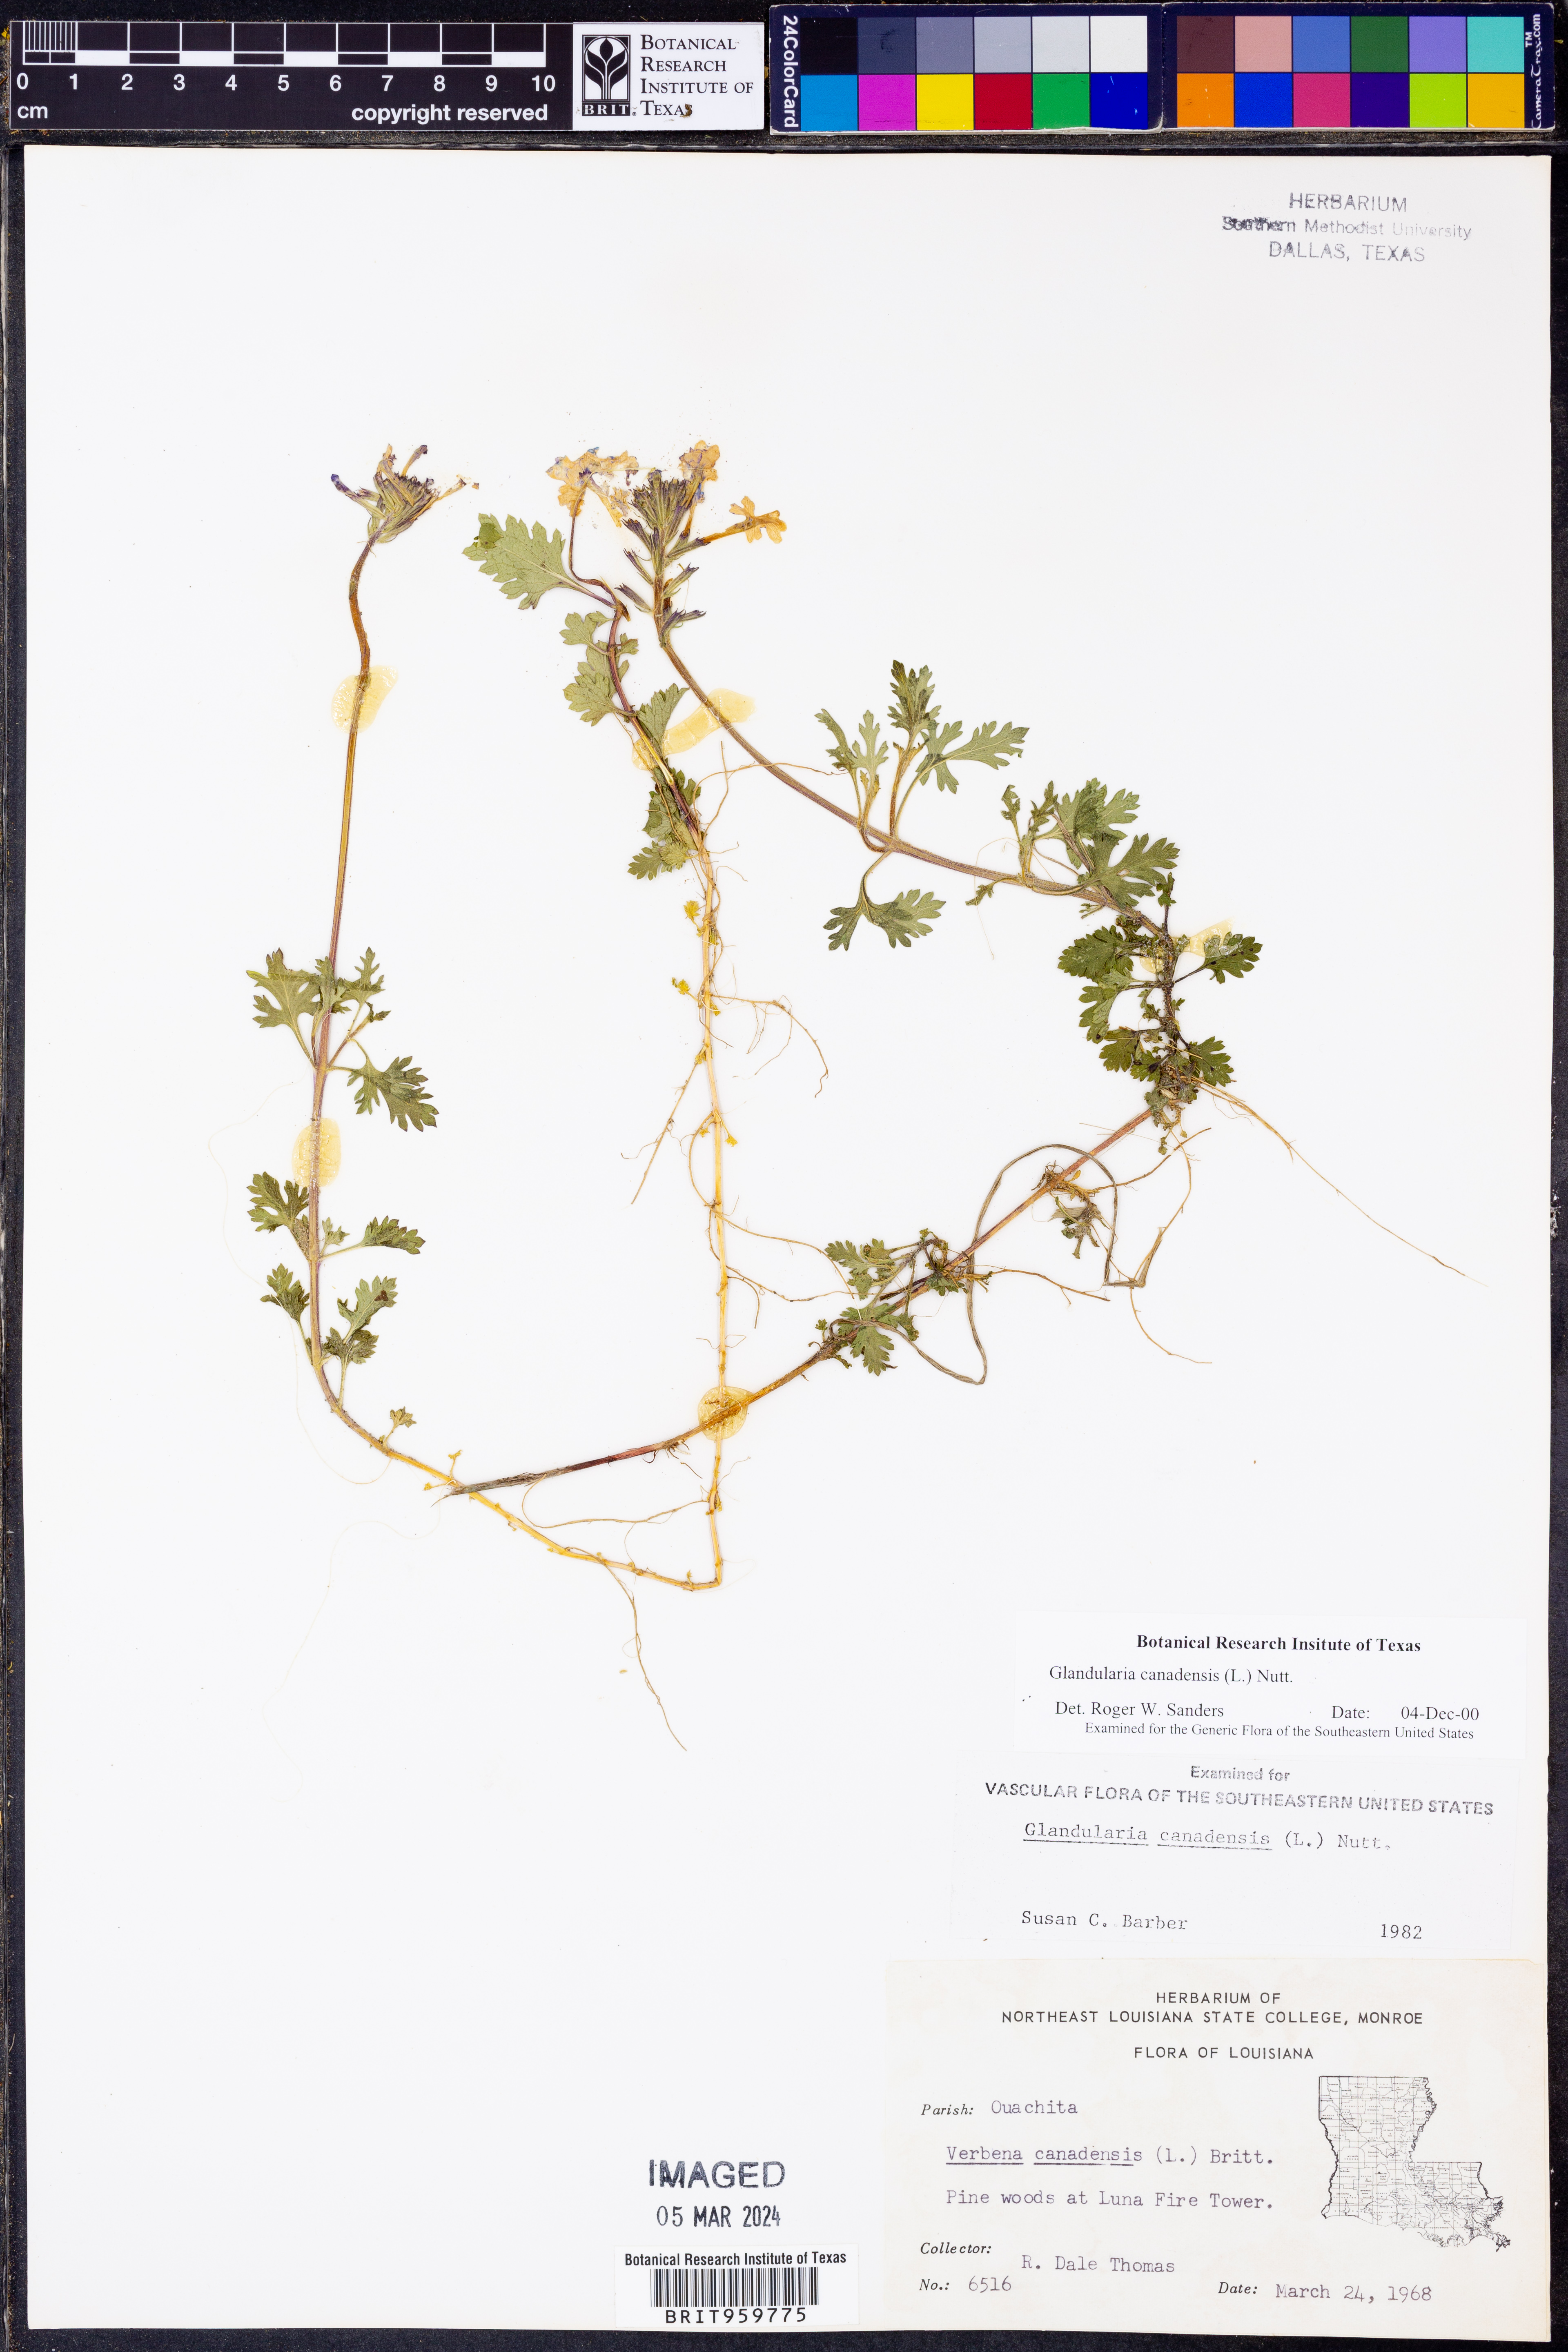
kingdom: Plantae
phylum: Tracheophyta
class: Magnoliopsida
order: Lamiales
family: Verbenaceae
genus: Verbena
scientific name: Verbena canadensis
